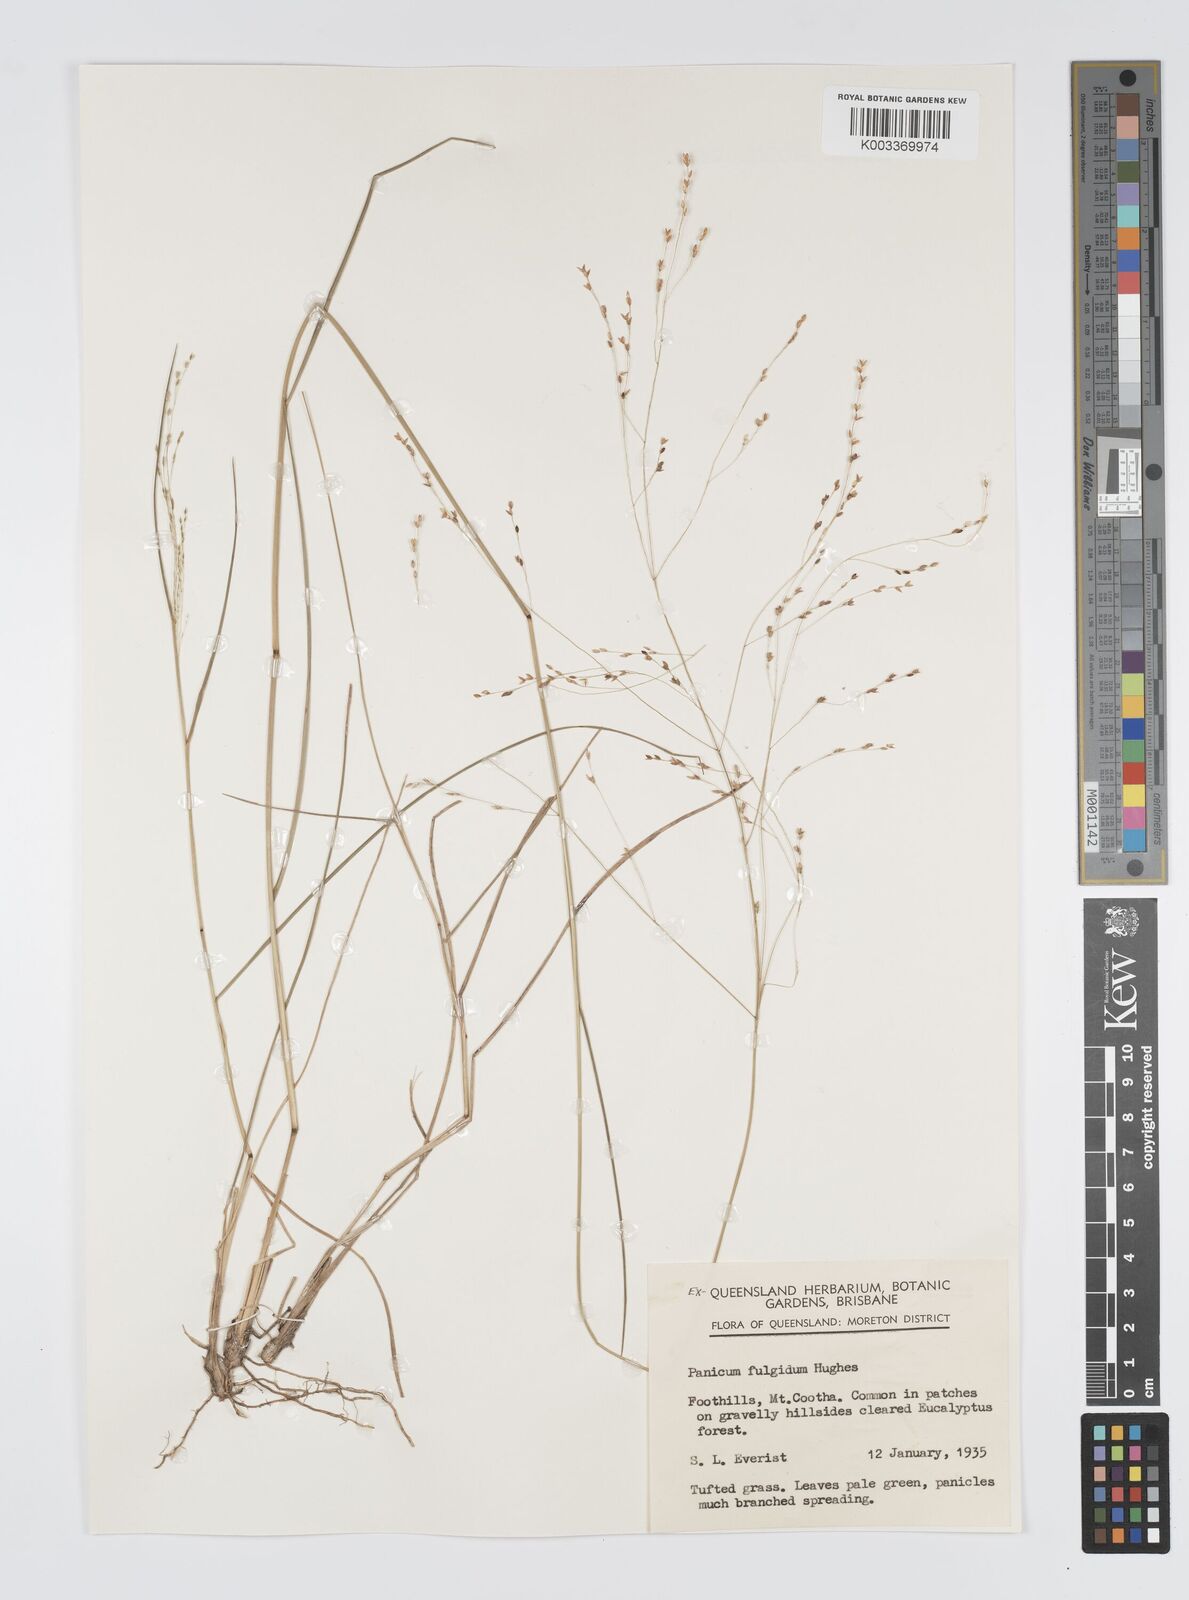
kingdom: Plantae
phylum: Tracheophyta
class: Liliopsida
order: Poales
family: Poaceae
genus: Panicum
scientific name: Panicum effusum
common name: Hairy panic grass
